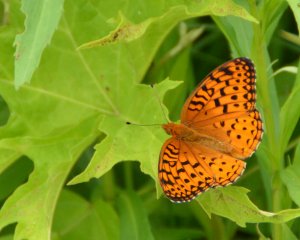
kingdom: Animalia
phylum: Arthropoda
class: Insecta
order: Lepidoptera
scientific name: Lepidoptera
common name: Butterflies
